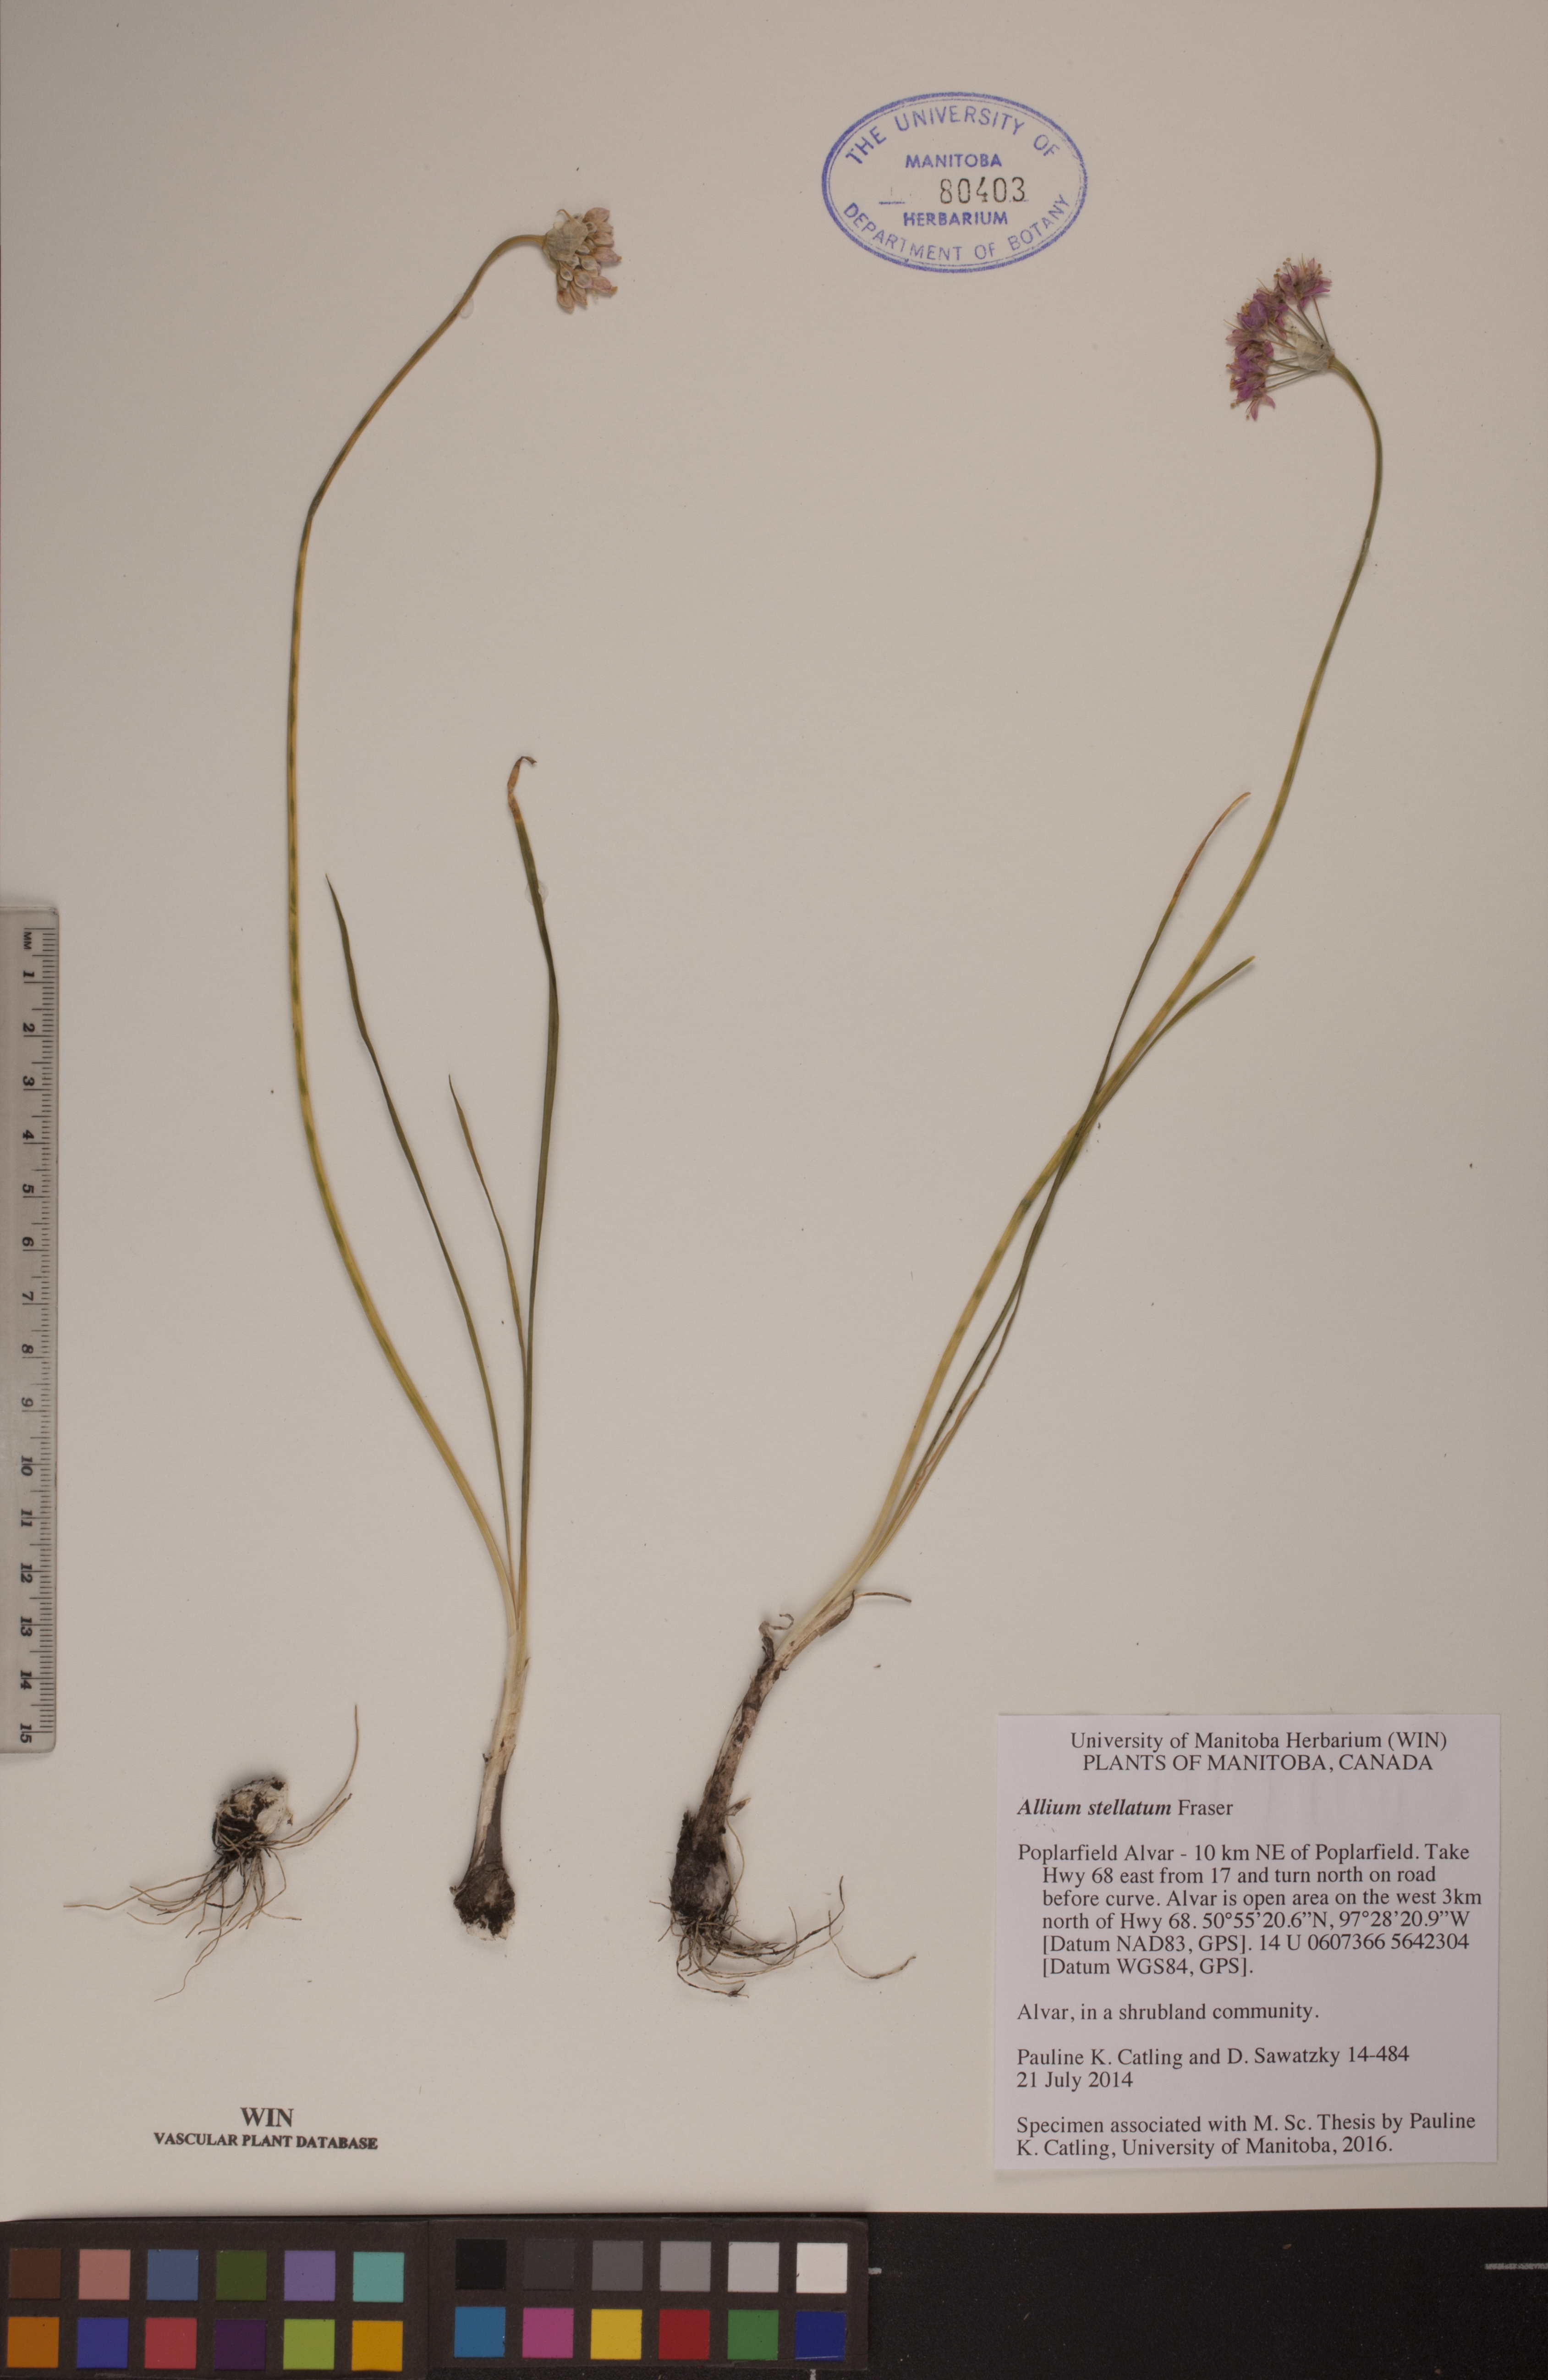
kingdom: Plantae
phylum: Tracheophyta
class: Liliopsida
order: Asparagales
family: Amaryllidaceae
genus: Allium
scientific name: Allium stellatum
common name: Autumn onion
